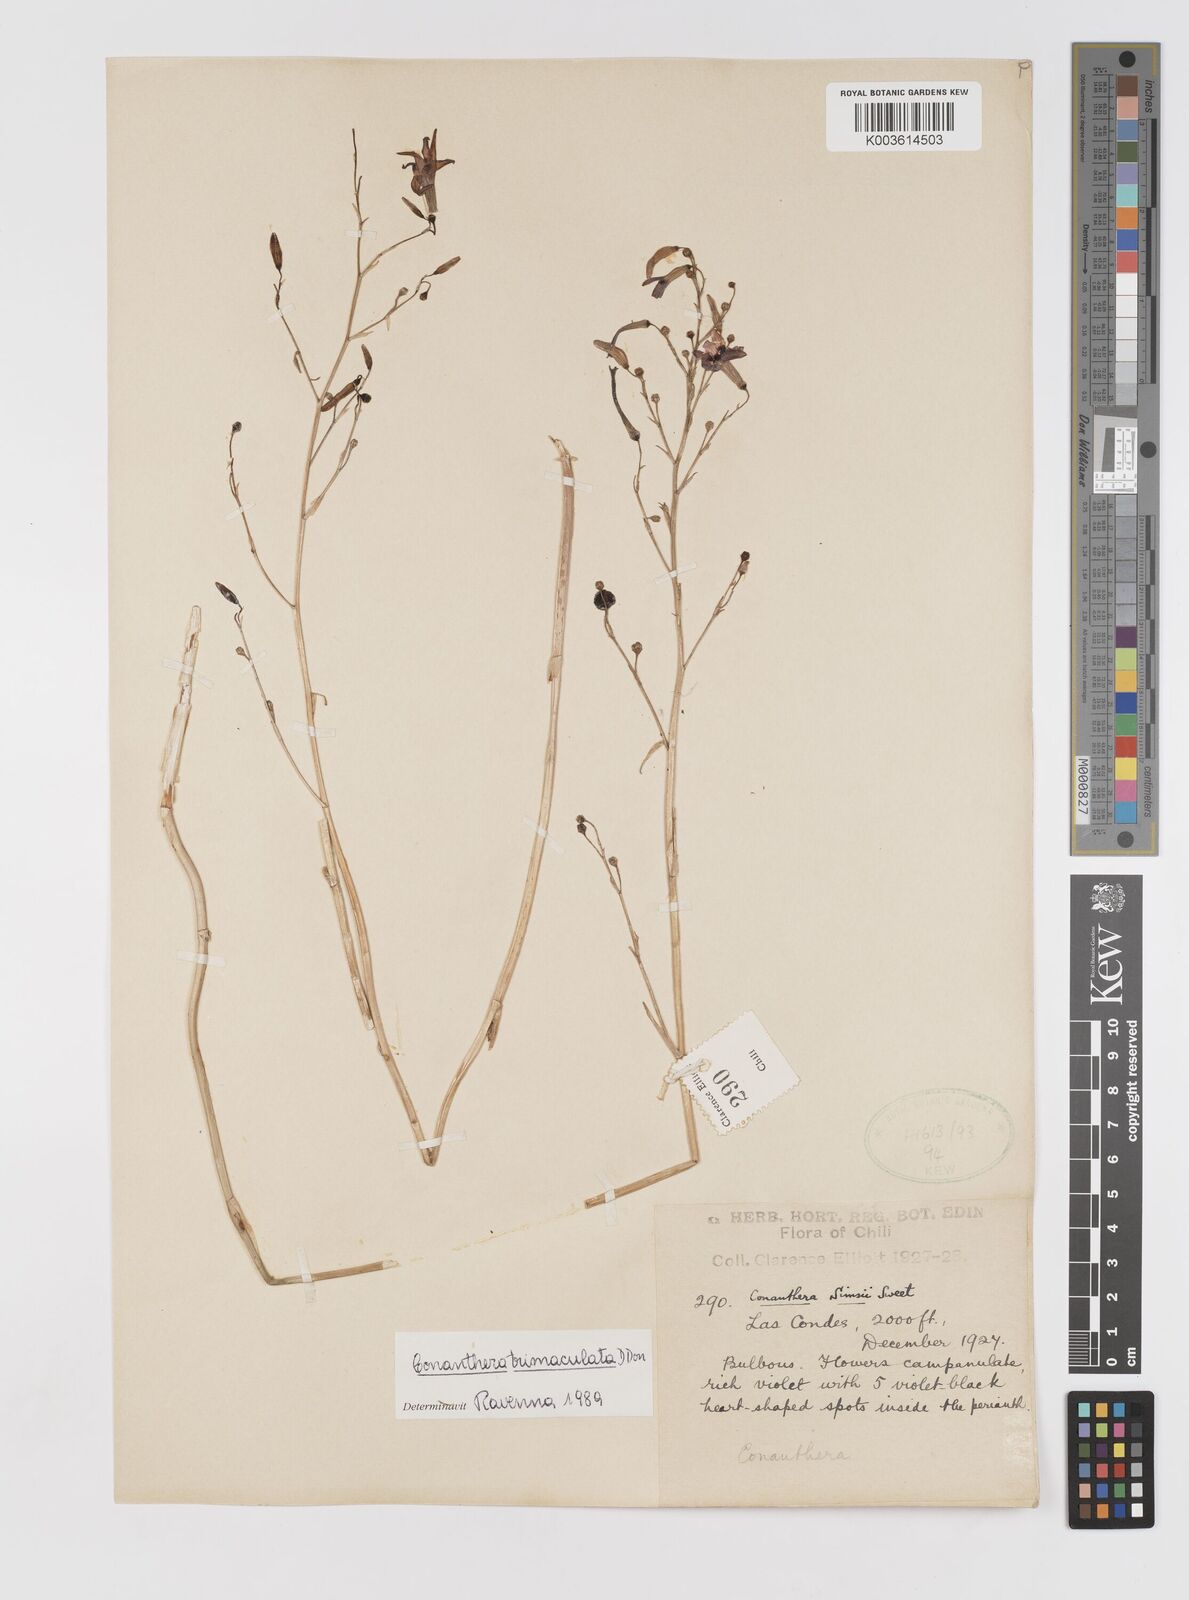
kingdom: Plantae
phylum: Tracheophyta
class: Liliopsida
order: Asparagales
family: Tecophilaeaceae
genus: Conanthera
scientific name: Conanthera campanulata
